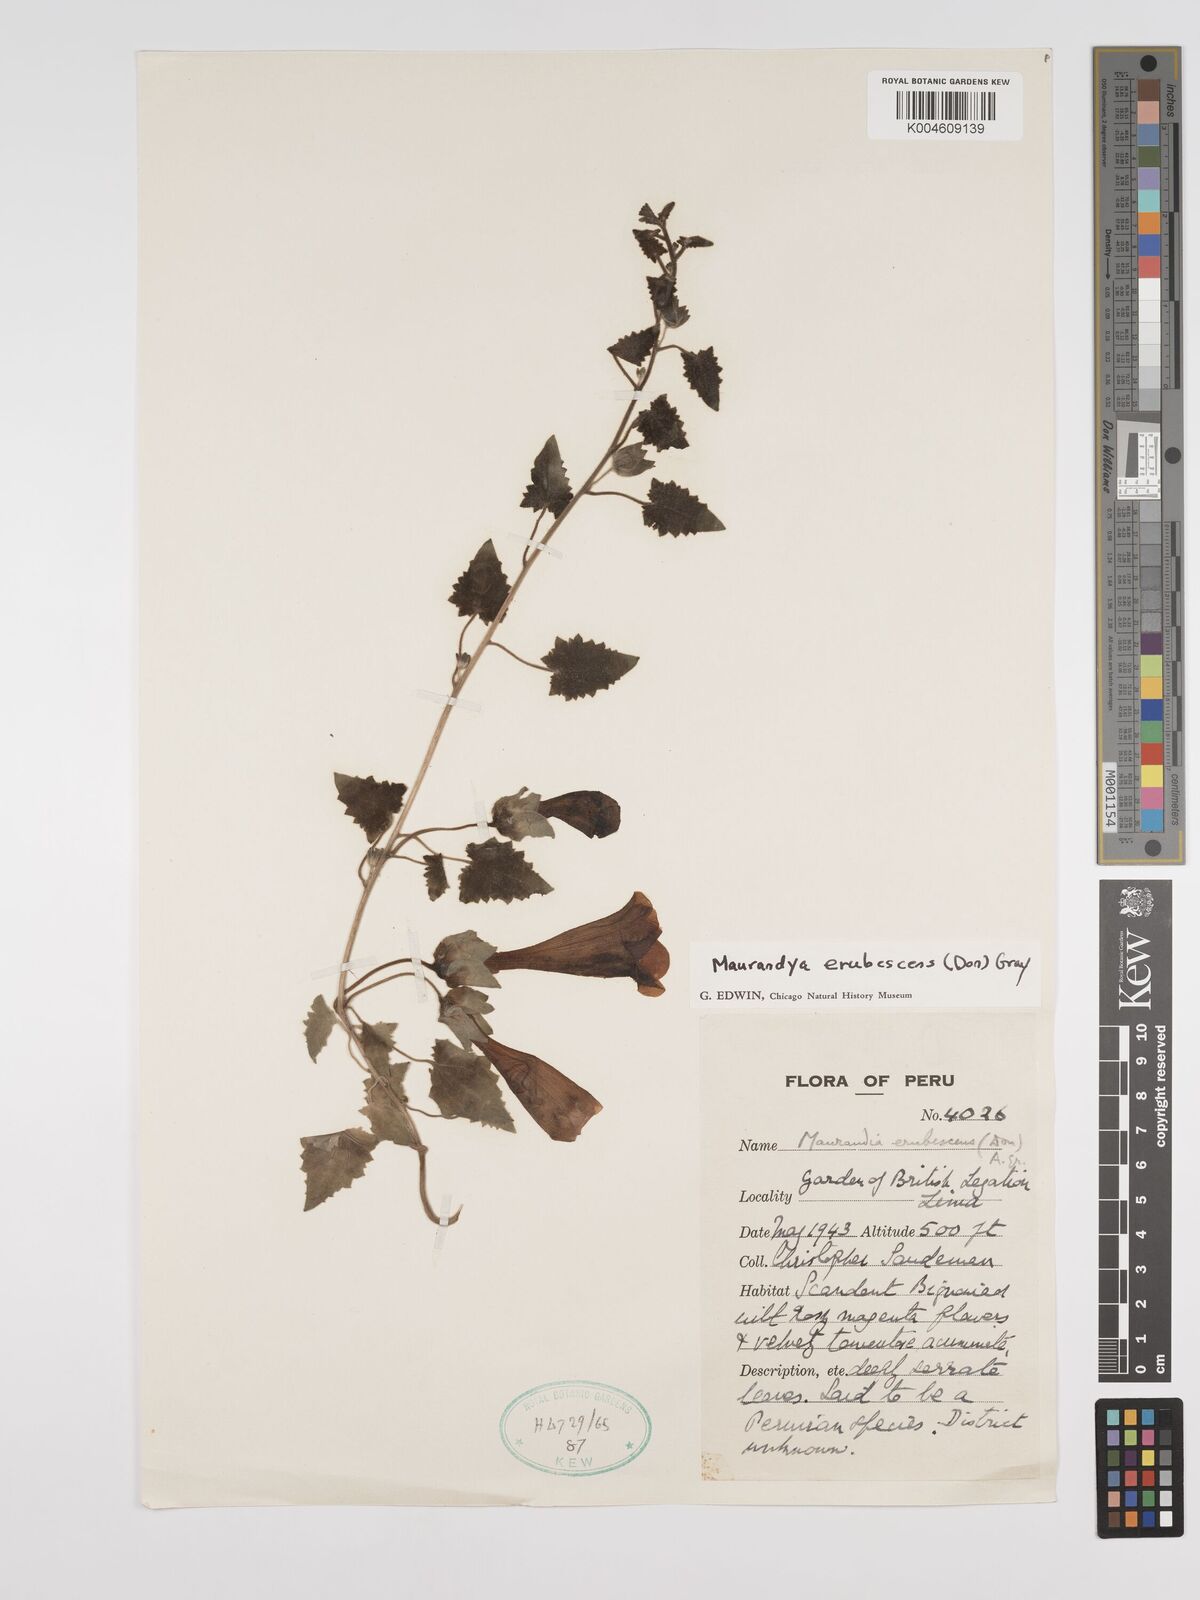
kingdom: Plantae
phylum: Tracheophyta
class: Magnoliopsida
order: Lamiales
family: Plantaginaceae
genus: Lophospermum
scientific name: Lophospermum erubescens
